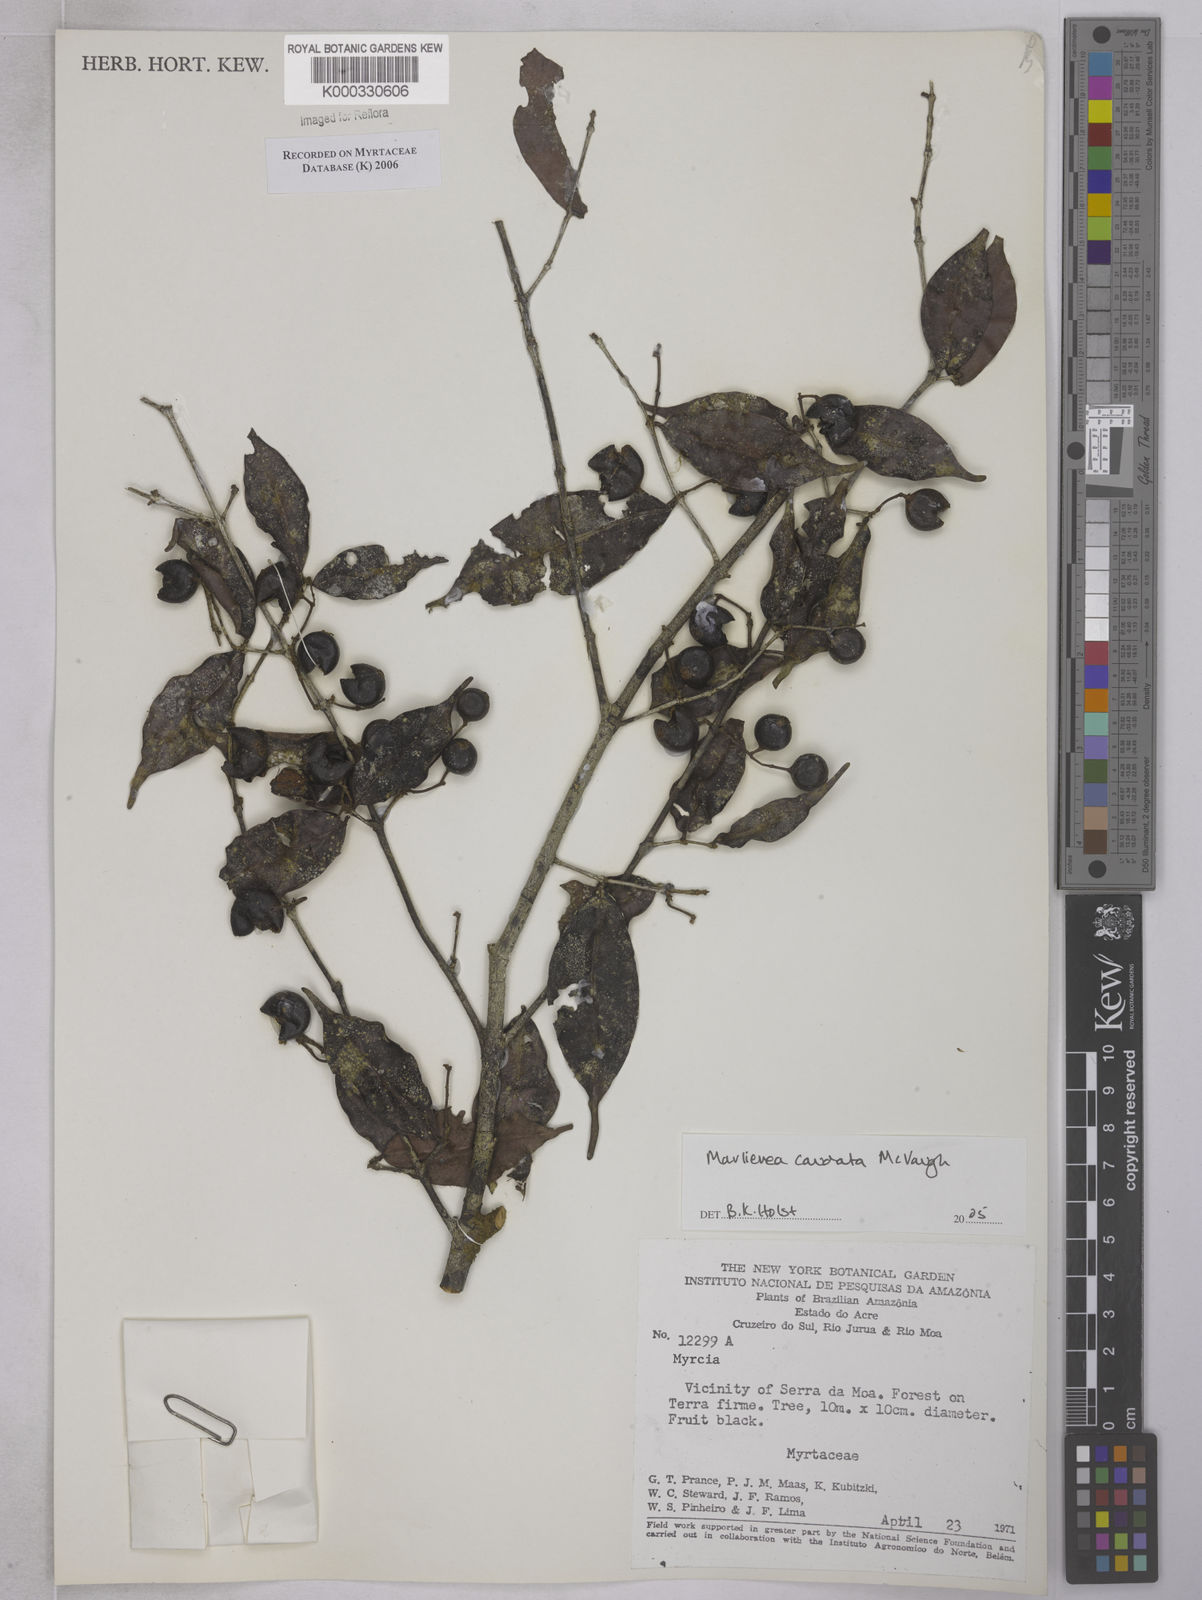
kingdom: Plantae
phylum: Tracheophyta
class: Magnoliopsida
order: Myrtales
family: Myrtaceae
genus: Myrcia
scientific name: Myrcia caudata
